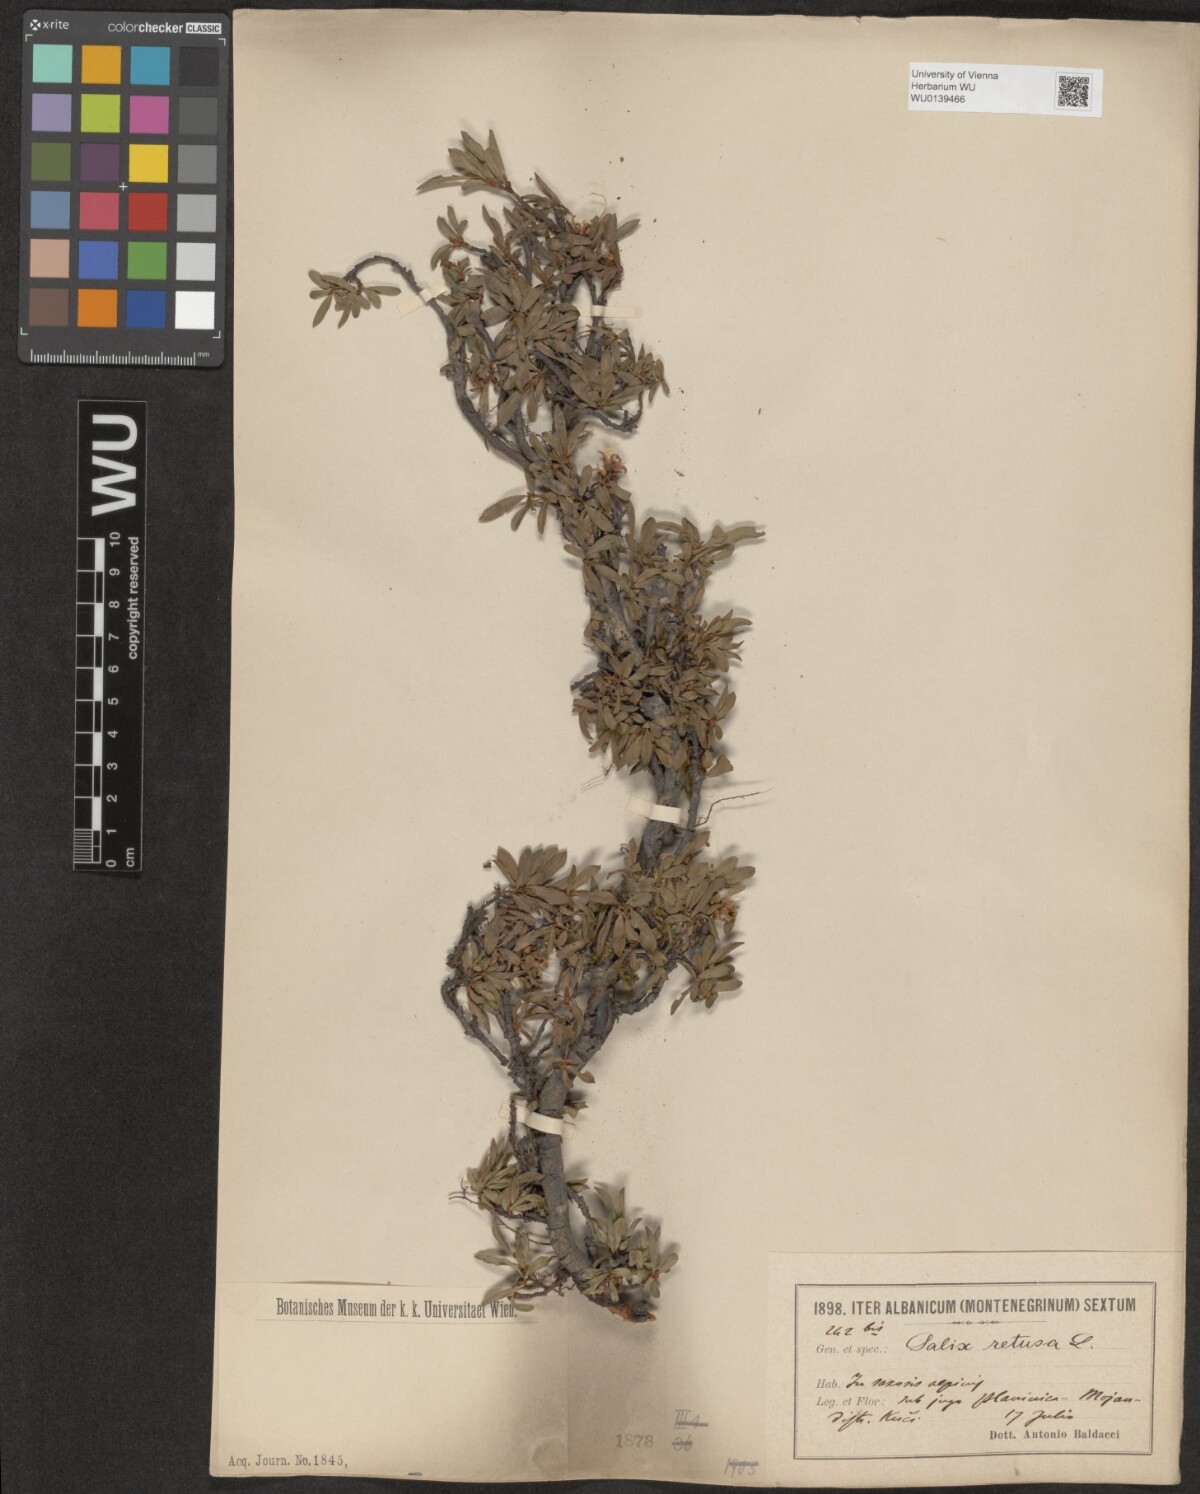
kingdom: Plantae
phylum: Tracheophyta
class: Magnoliopsida
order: Malpighiales
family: Salicaceae
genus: Salix
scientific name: Salix retusa
